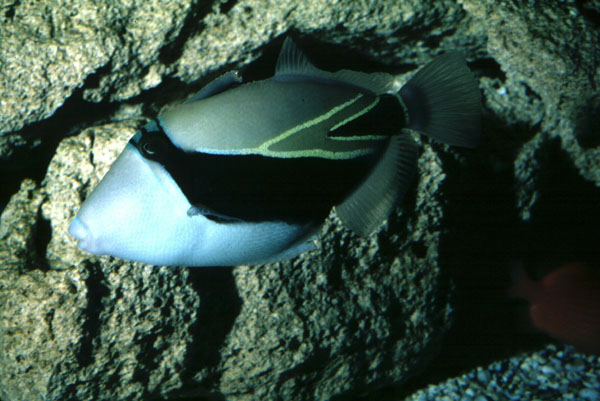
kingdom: Animalia
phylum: Chordata
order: Tetraodontiformes
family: Balistidae
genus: Rhinecanthus
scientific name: Rhinecanthus rectangulus
